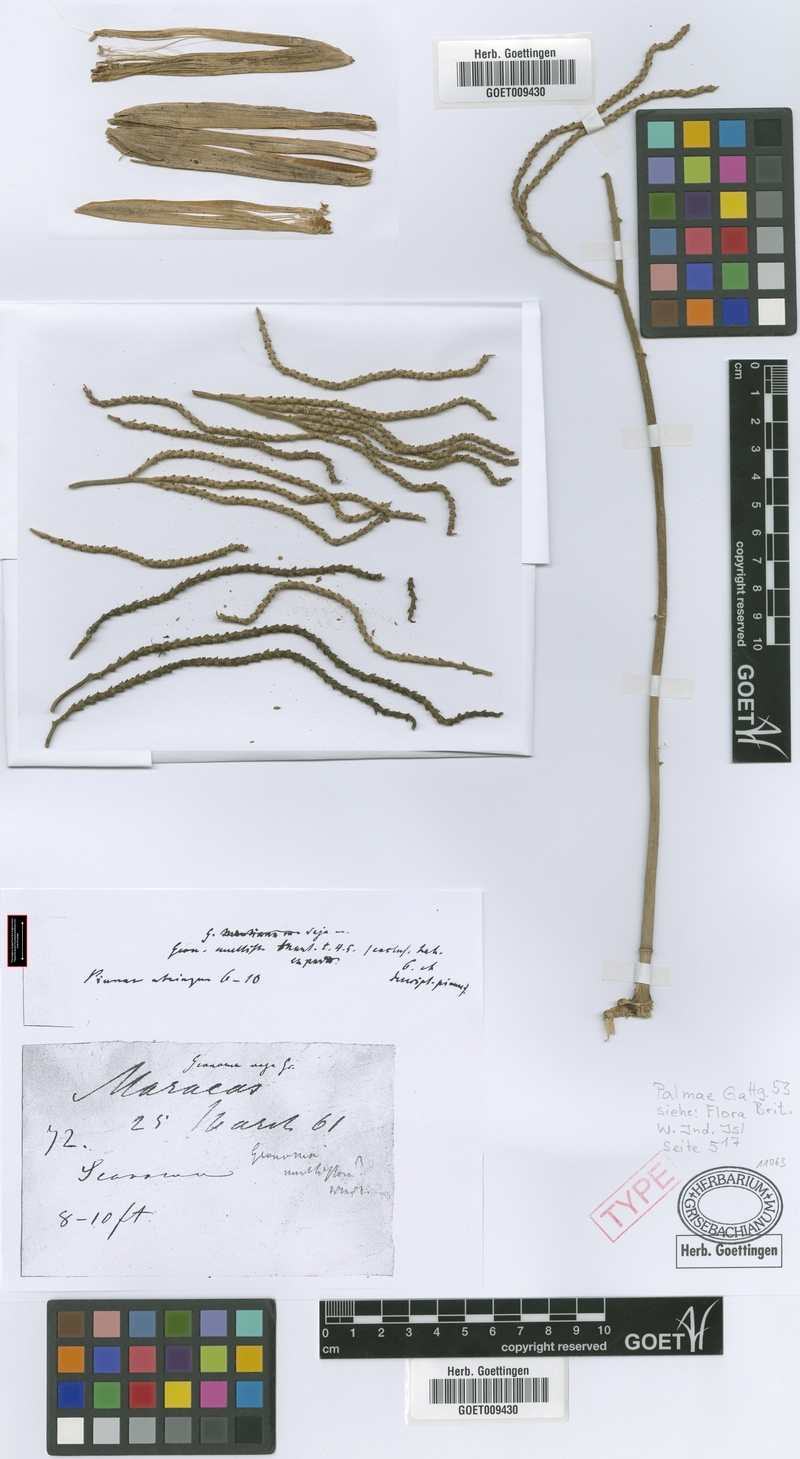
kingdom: Plantae
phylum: Tracheophyta
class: Liliopsida
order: Arecales
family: Arecaceae
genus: Geonoma
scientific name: Geonoma pinnatifrons
